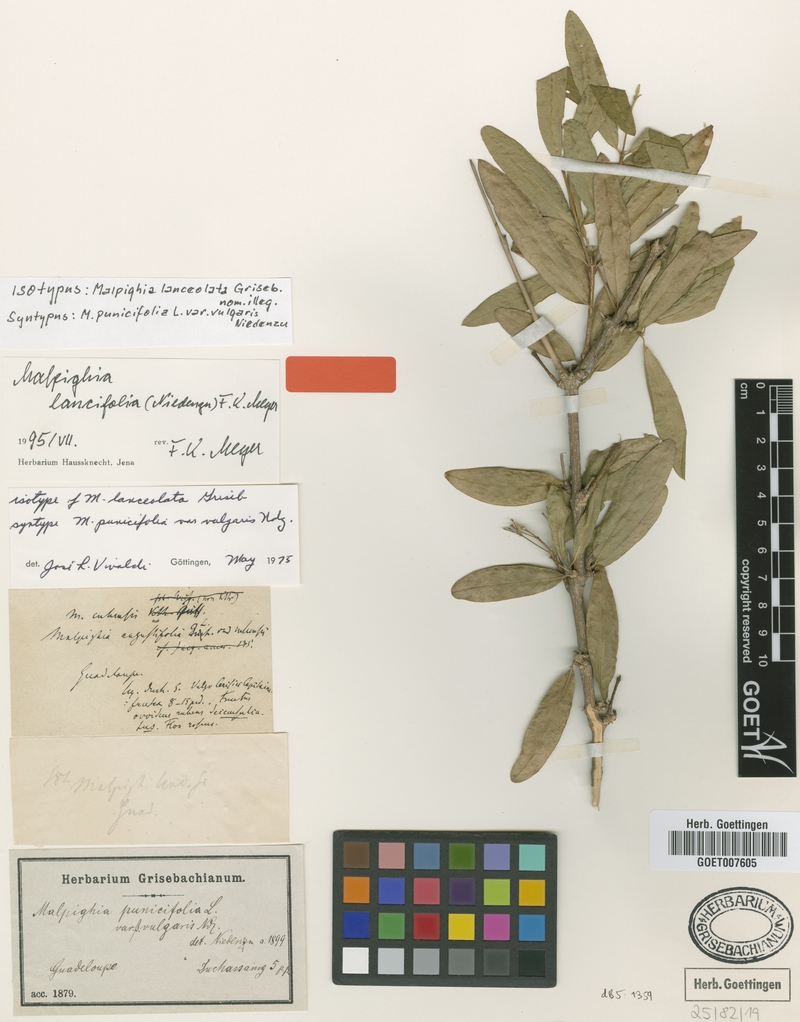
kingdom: Plantae
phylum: Tracheophyta
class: Magnoliopsida
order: Malpighiales
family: Malpighiaceae
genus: Malpighia
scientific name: Malpighia emarginata
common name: Barbados cherry
